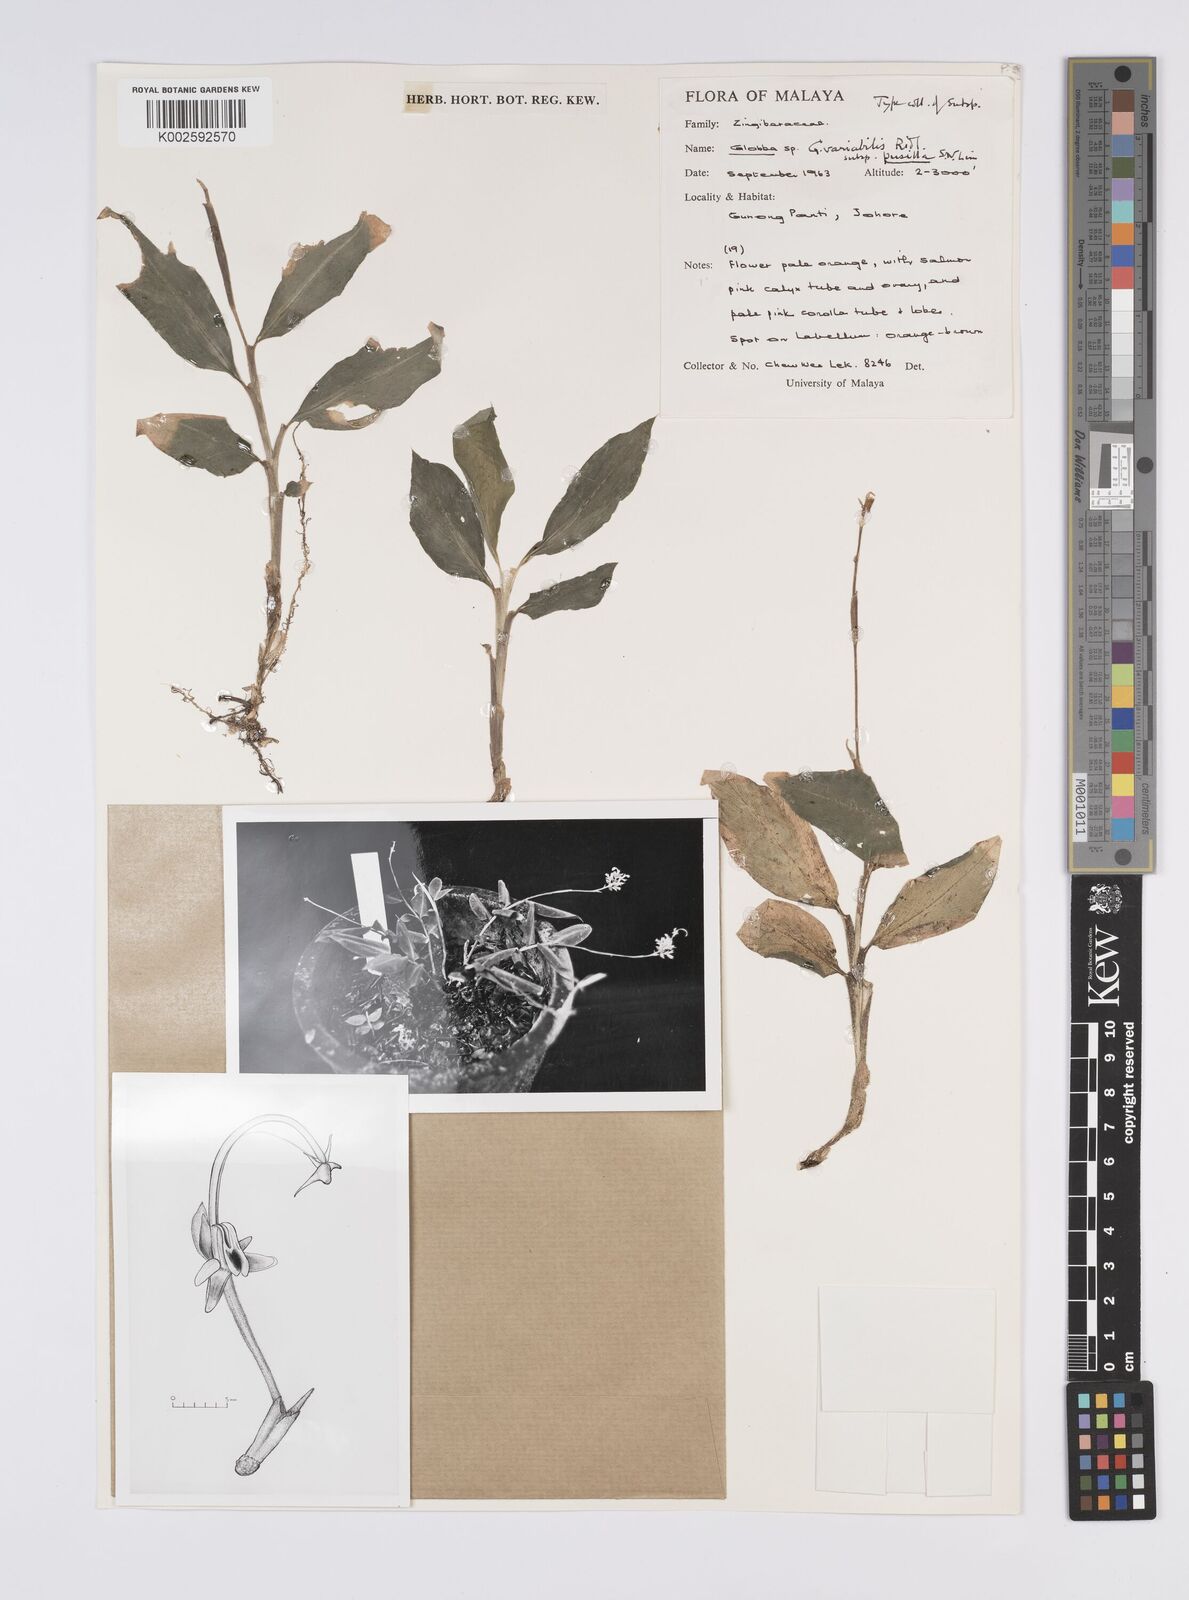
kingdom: Plantae
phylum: Tracheophyta
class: Liliopsida
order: Zingiberales
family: Zingiberaceae
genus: Globba
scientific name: Globba variabilis
